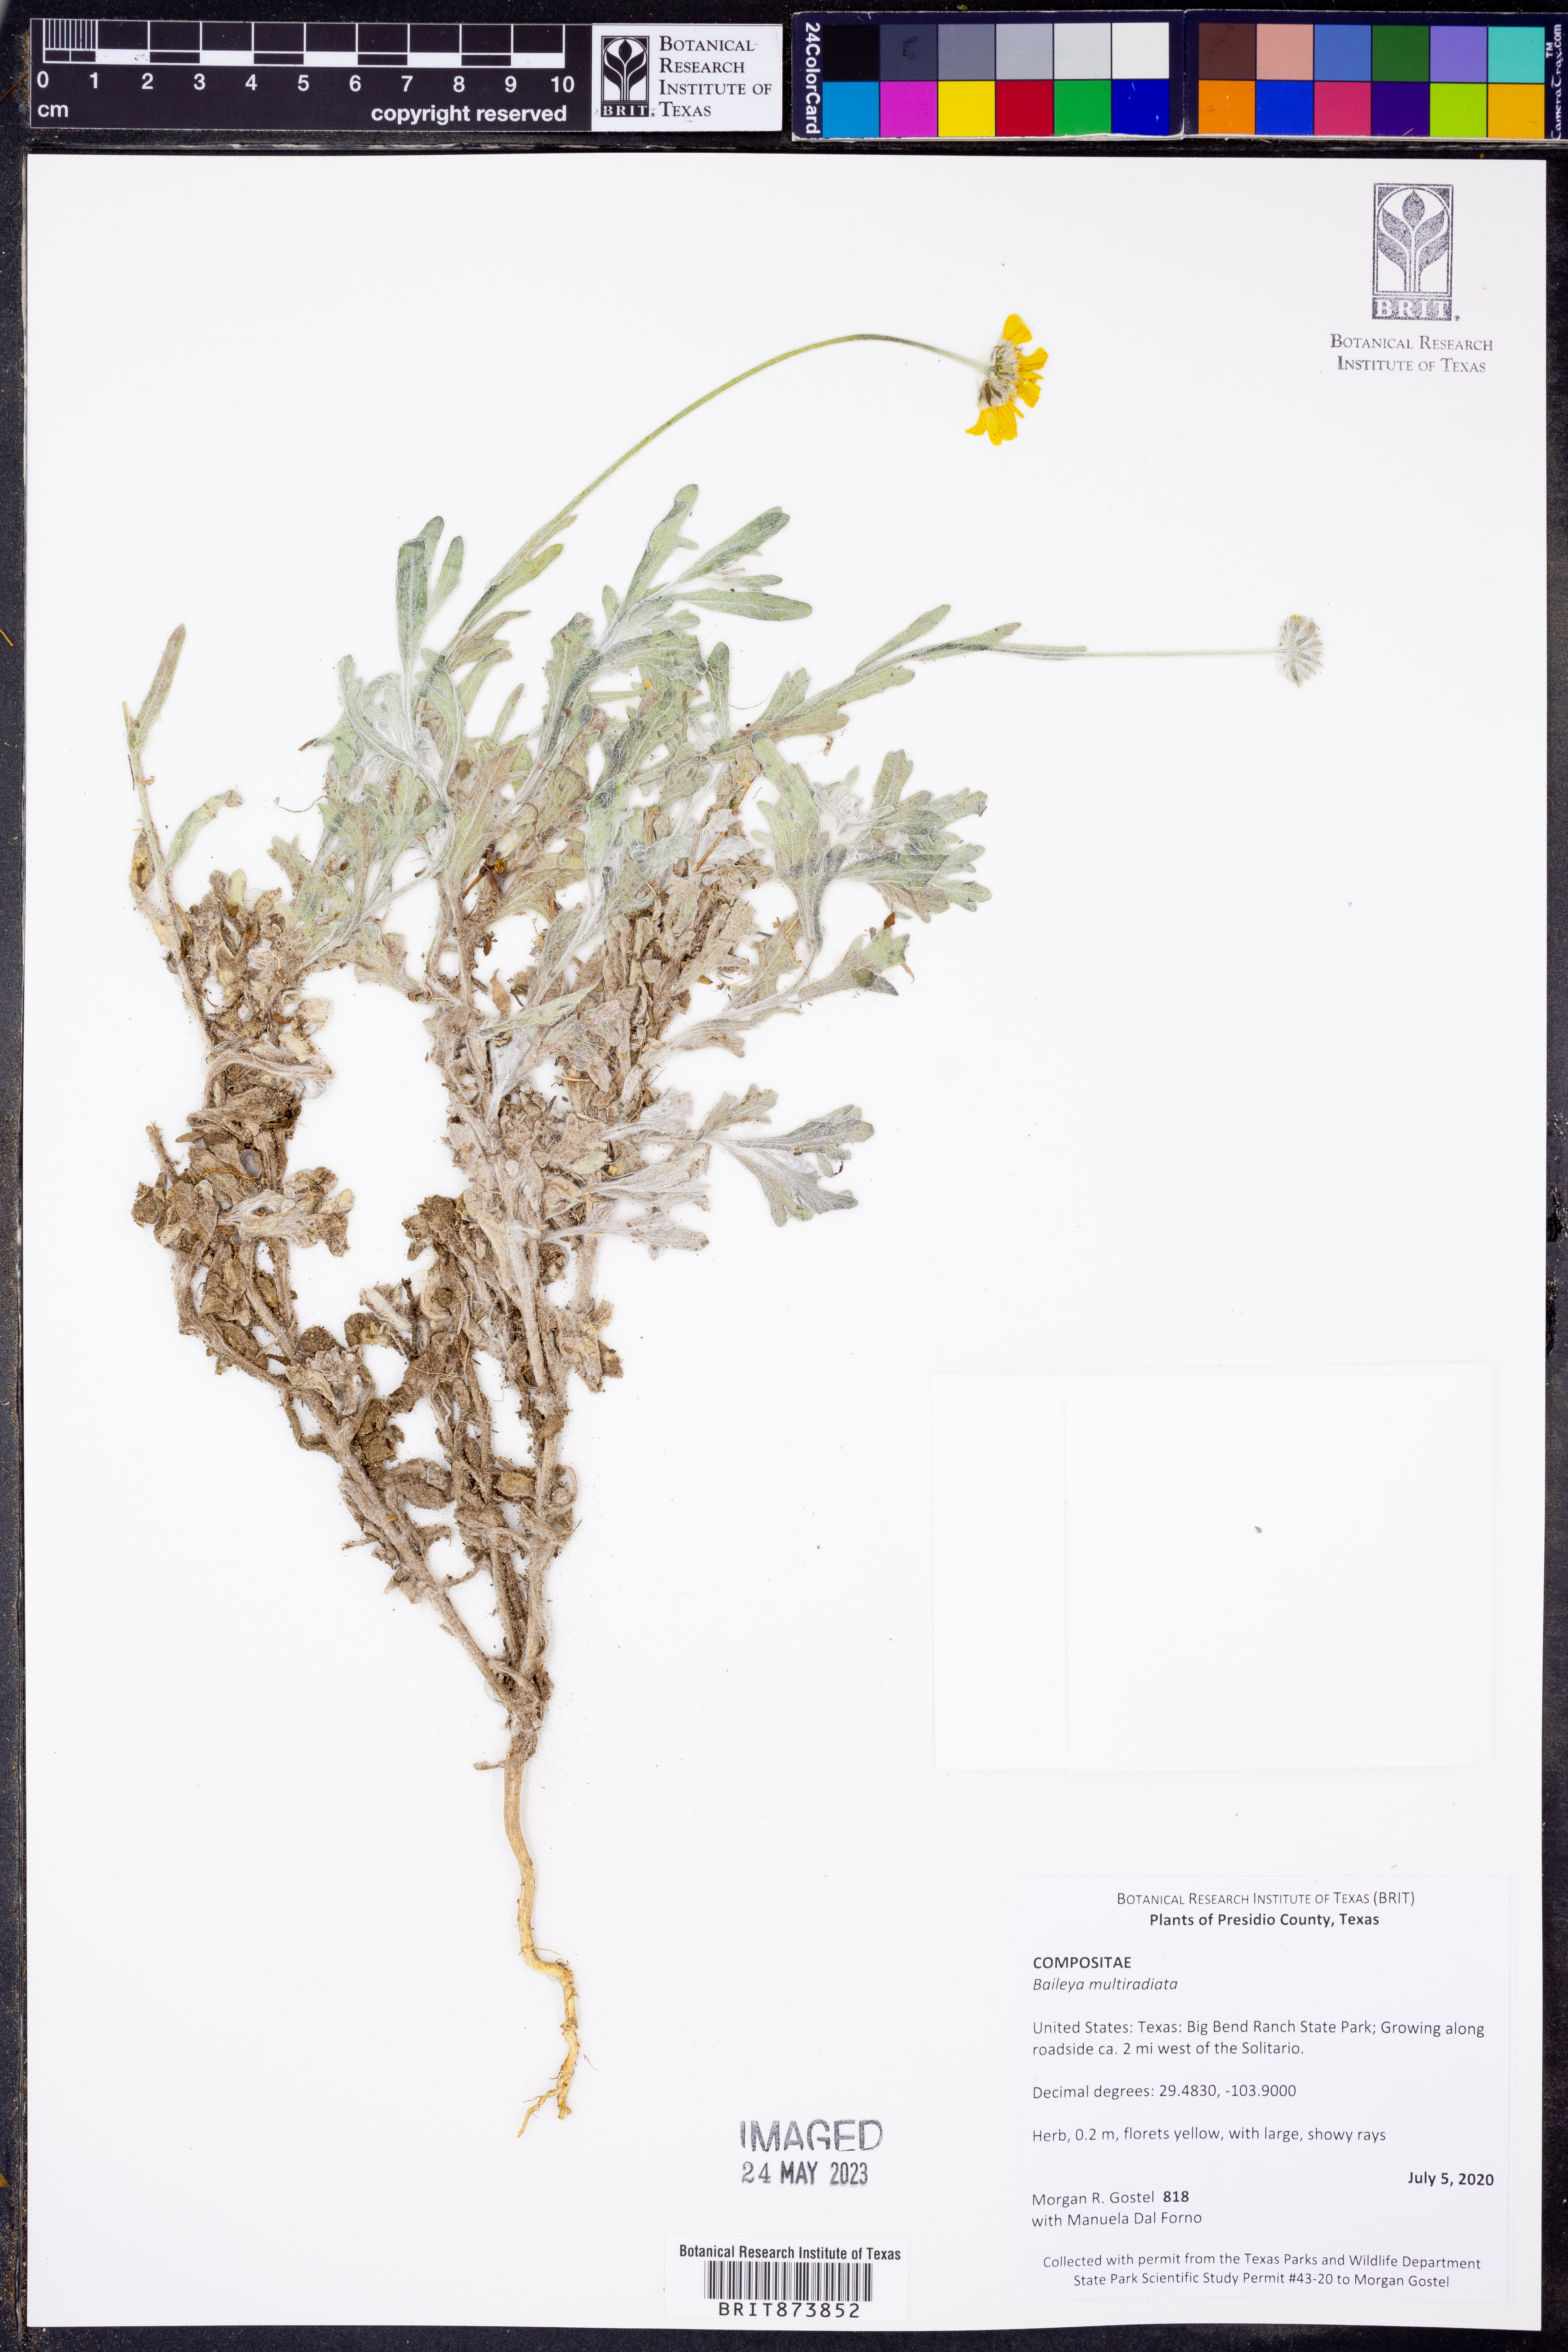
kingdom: Plantae
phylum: Tracheophyta
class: Magnoliopsida
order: Asterales
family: Asteraceae
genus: Baileya
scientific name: Baileya multiradiata
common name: Desert-marigold
